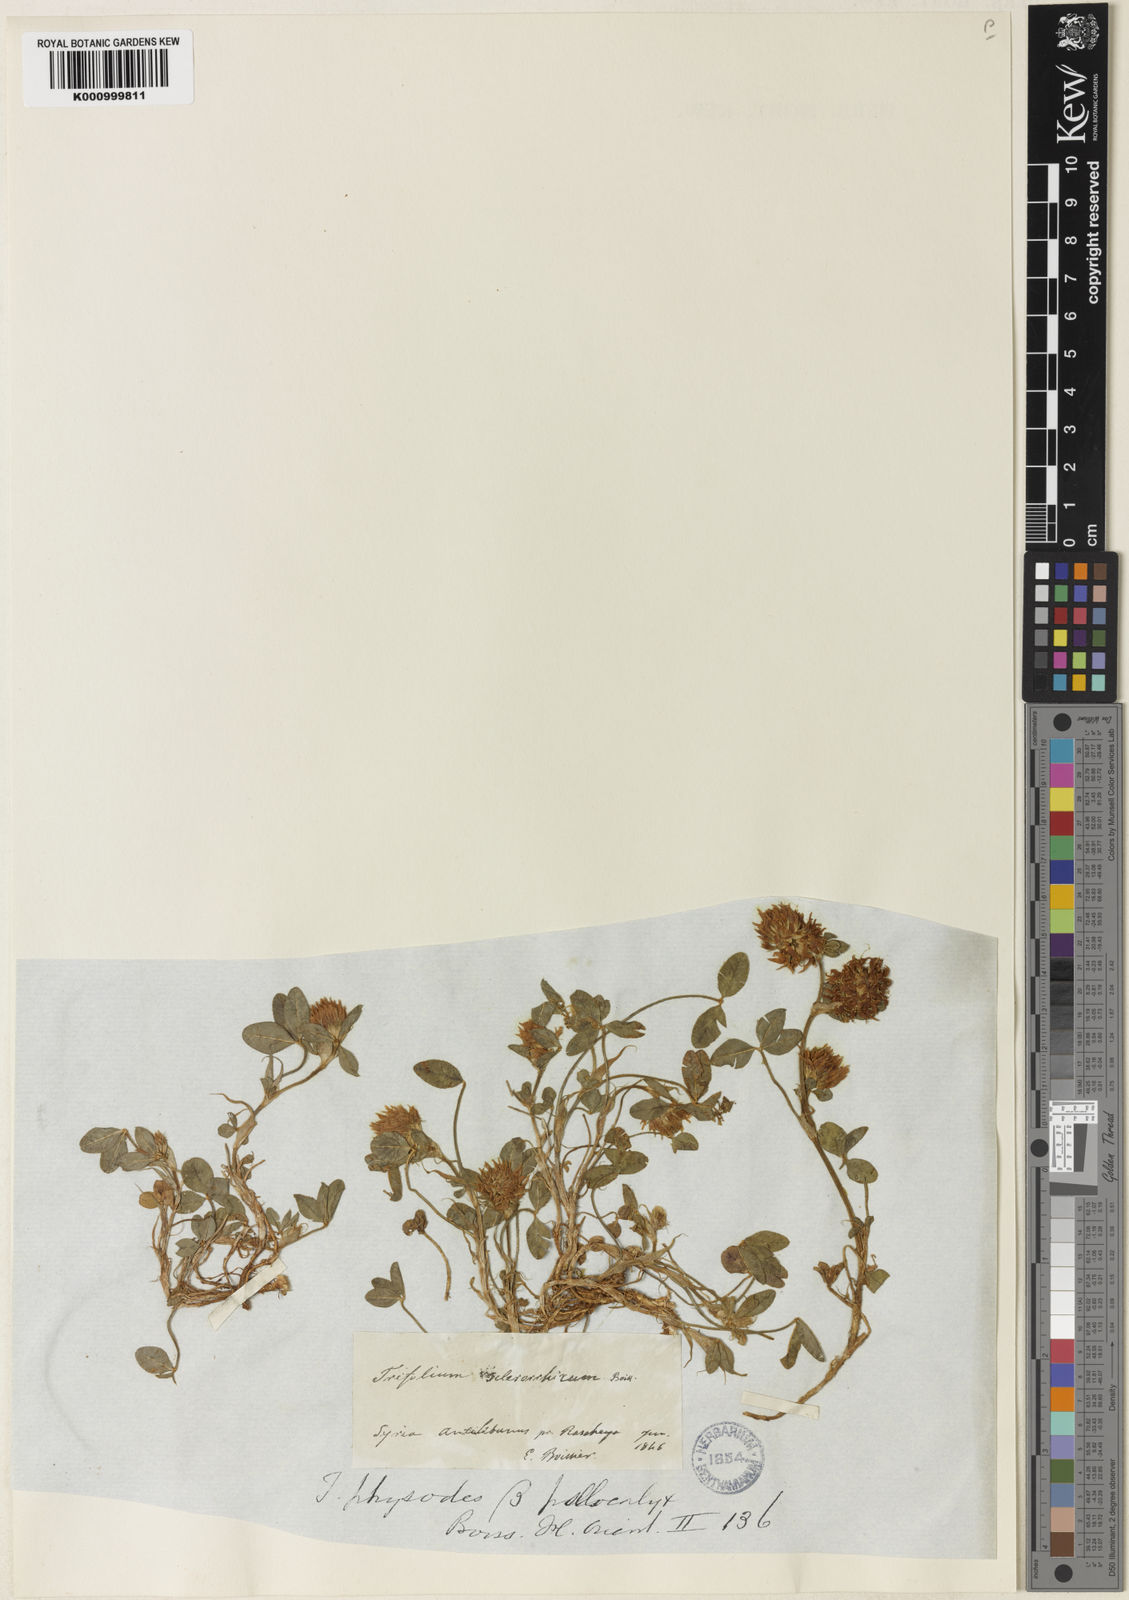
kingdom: Plantae
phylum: Tracheophyta
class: Magnoliopsida
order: Fabales
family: Fabaceae
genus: Trifolium
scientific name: Trifolium physodes
